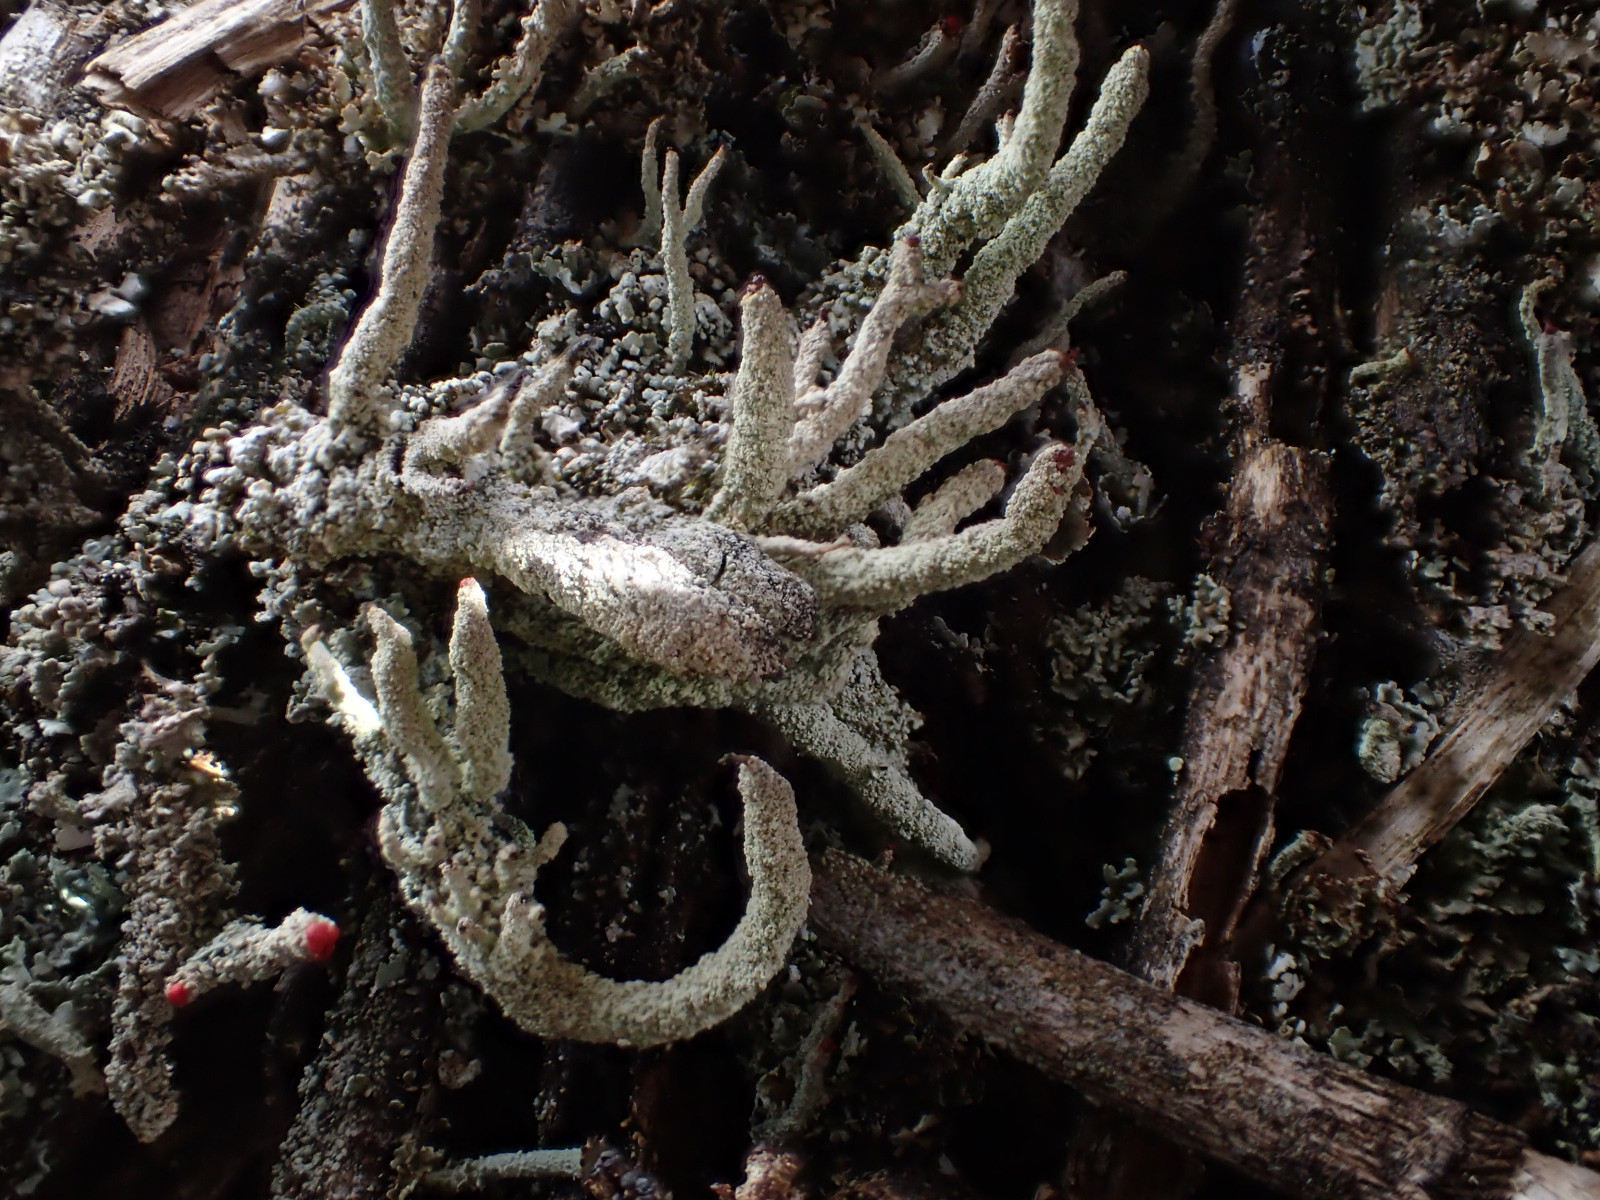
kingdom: Fungi
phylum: Ascomycota
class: Lecanoromycetes
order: Lecanorales
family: Cladoniaceae
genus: Cladonia
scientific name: Cladonia macilenta
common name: indsvunden bægerlav
